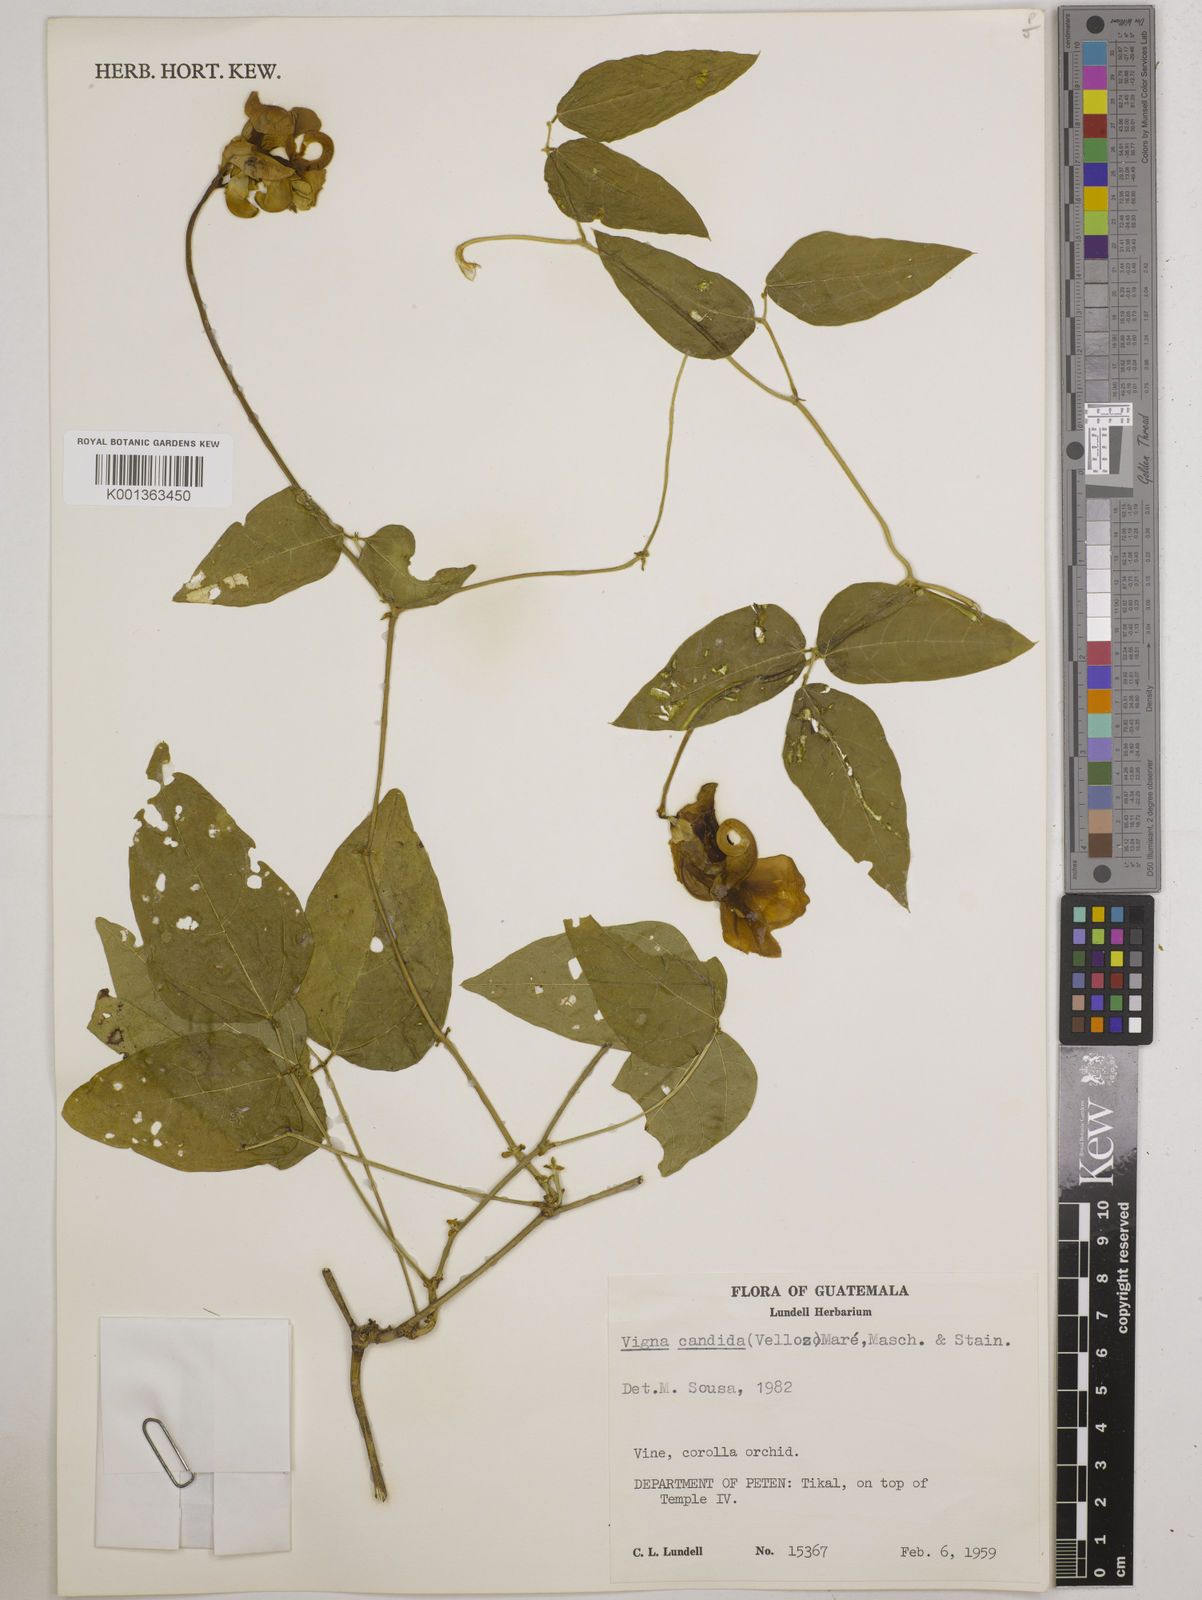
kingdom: Plantae
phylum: Tracheophyta
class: Magnoliopsida
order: Fabales
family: Fabaceae
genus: Vigna
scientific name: Vigna
